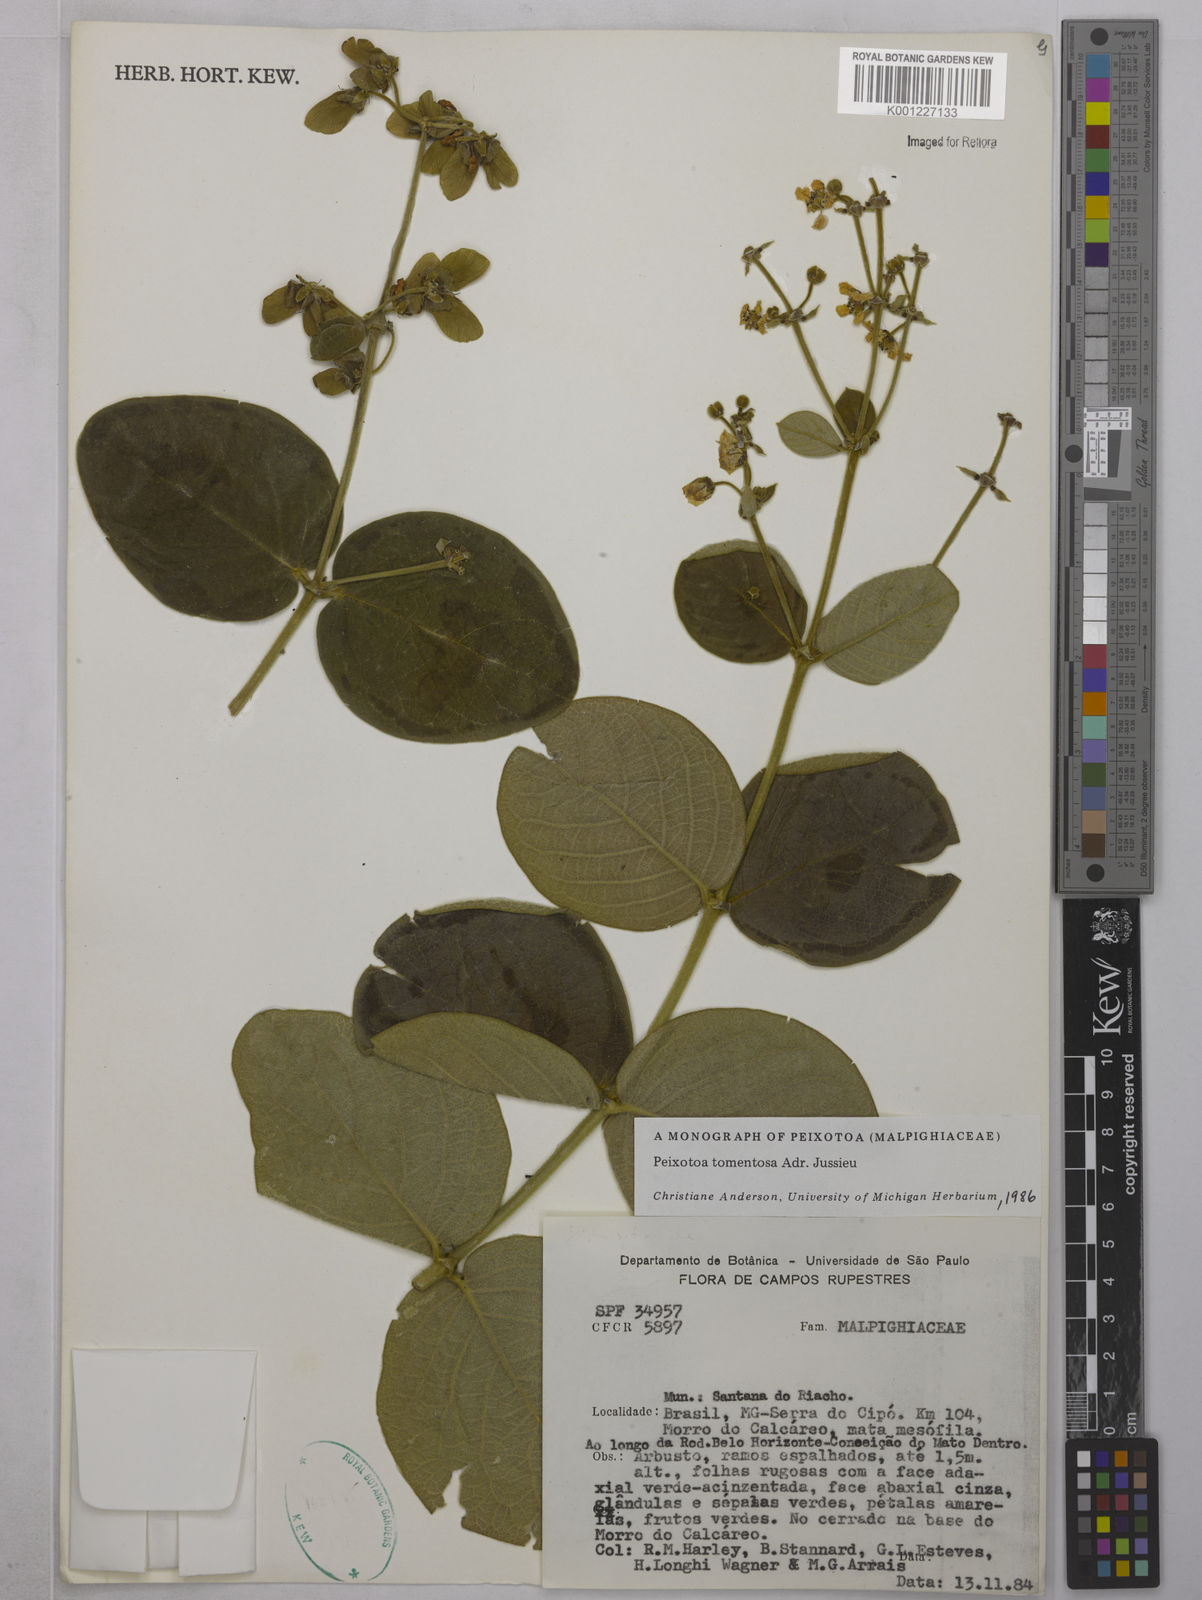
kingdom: Plantae
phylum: Tracheophyta
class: Magnoliopsida
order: Malpighiales
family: Malpighiaceae
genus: Peixotoa
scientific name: Peixotoa tomentosa
